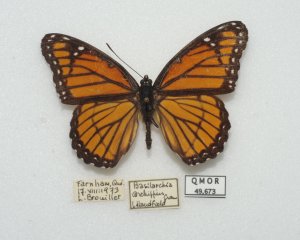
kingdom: Animalia
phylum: Arthropoda
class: Insecta
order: Lepidoptera
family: Nymphalidae
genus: Limenitis
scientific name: Limenitis archippus
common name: Viceroy
